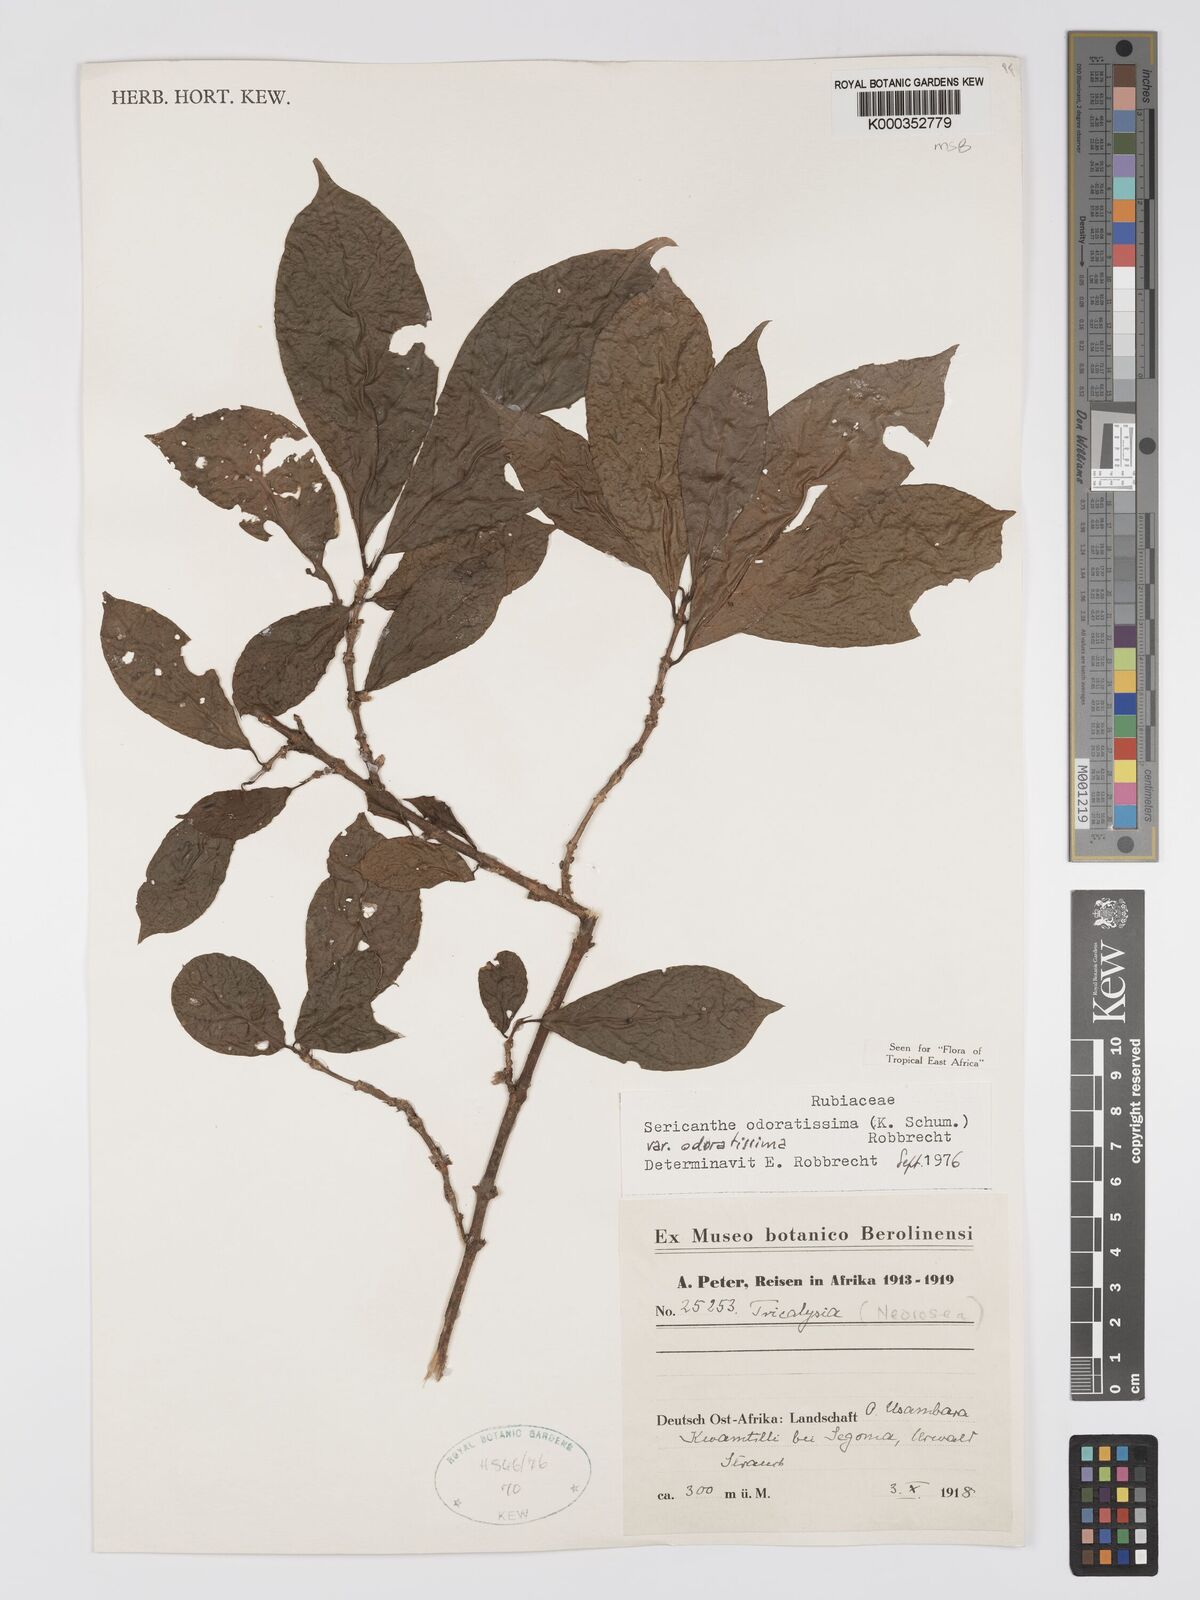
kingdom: Plantae
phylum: Tracheophyta
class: Magnoliopsida
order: Gentianales
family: Rubiaceae
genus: Sericanthe
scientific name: Sericanthe odoratissima
